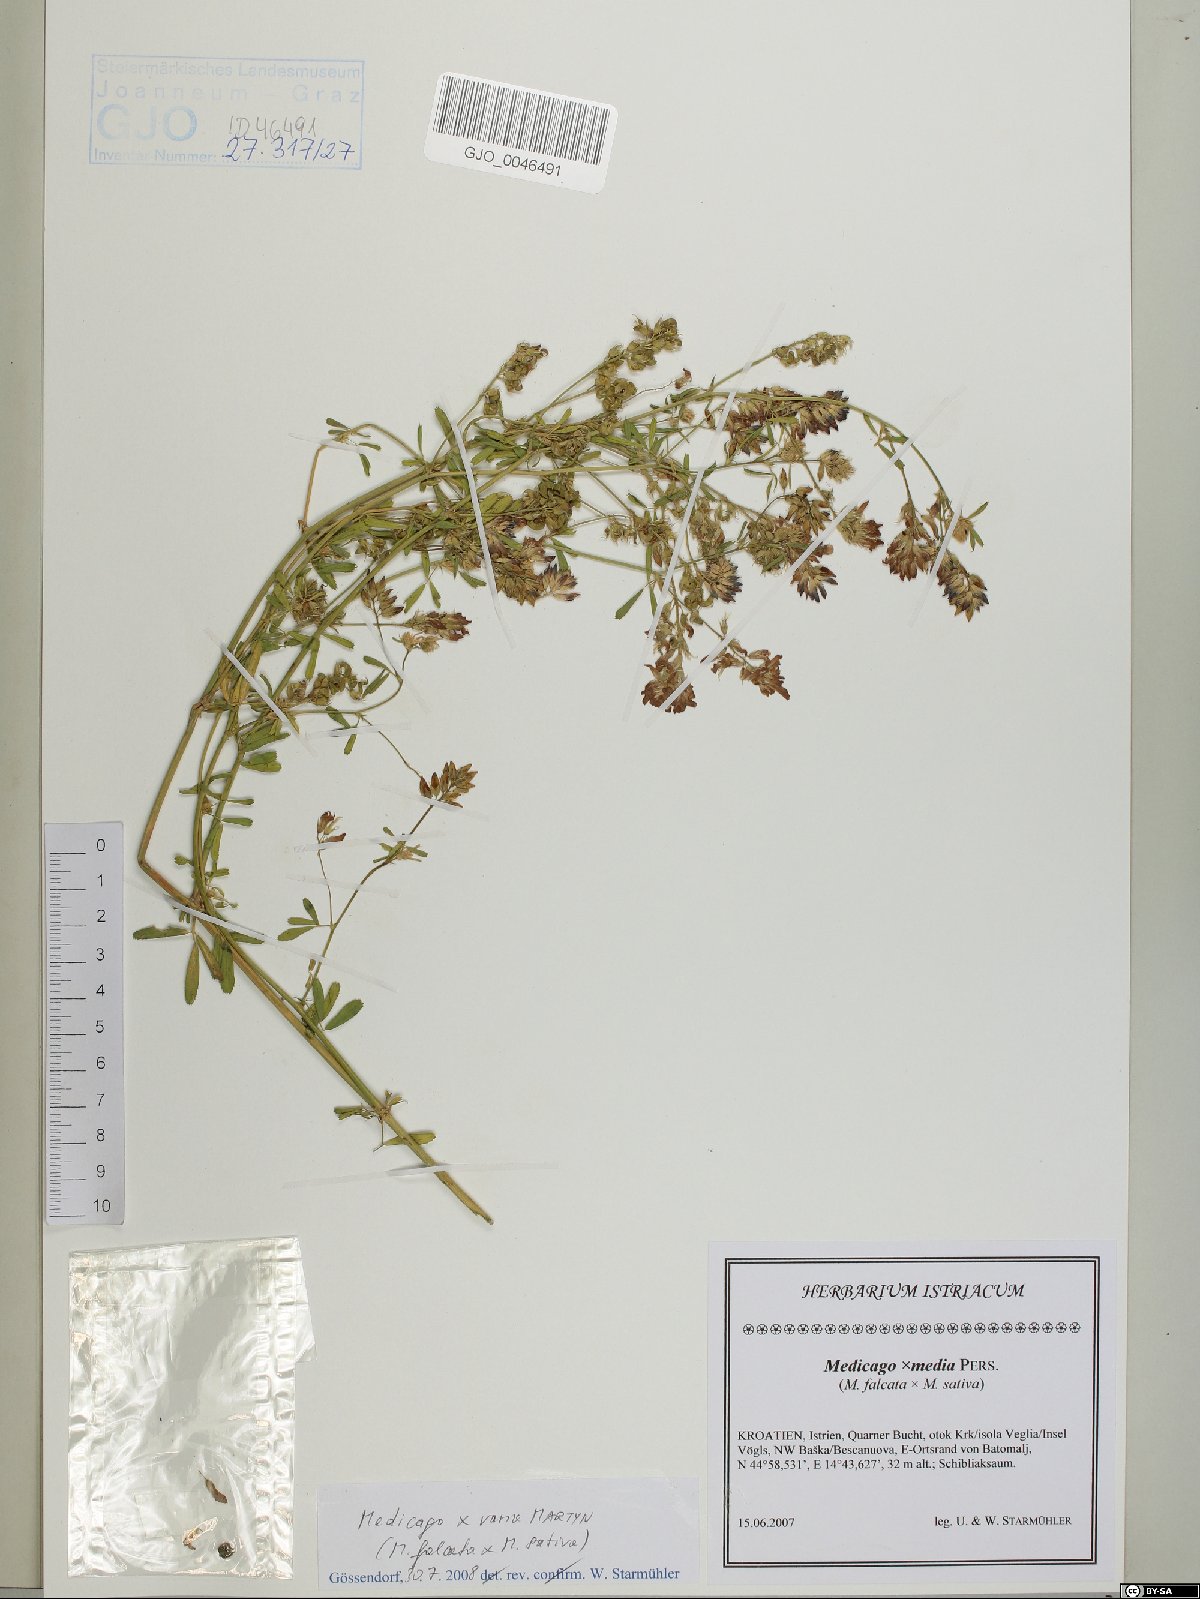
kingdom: Plantae
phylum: Tracheophyta
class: Magnoliopsida
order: Fabales
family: Fabaceae
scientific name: Fabaceae
